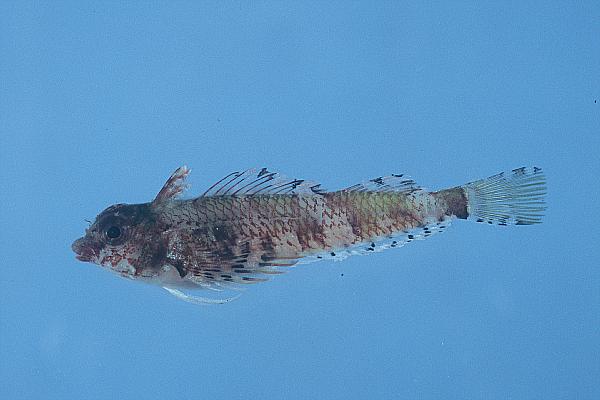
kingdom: Animalia
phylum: Chordata
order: Perciformes
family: Tripterygiidae
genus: Enneapterygius
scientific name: Enneapterygius ventermaculus
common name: Blotched triplefin
